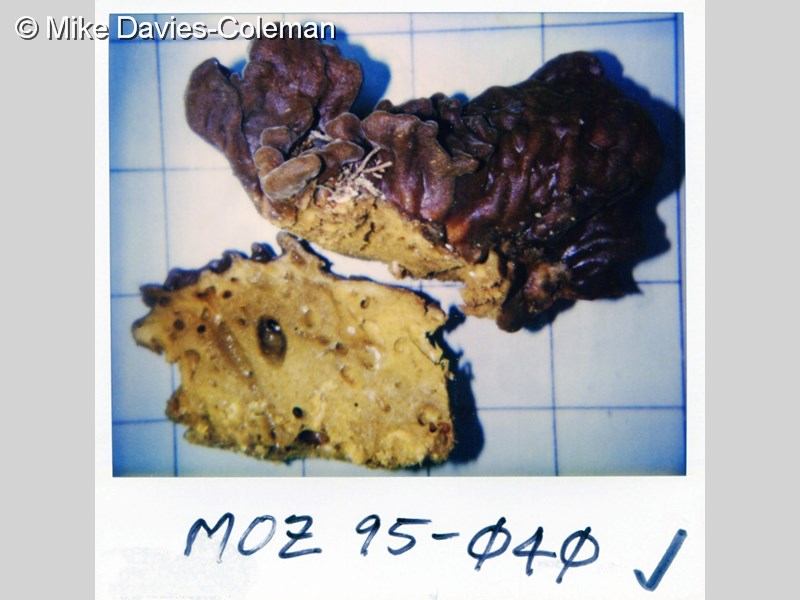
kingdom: Animalia
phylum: Porifera
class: Demospongiae
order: Clionaida
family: Spirastrellidae
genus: Spirastrella
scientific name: Spirastrella
